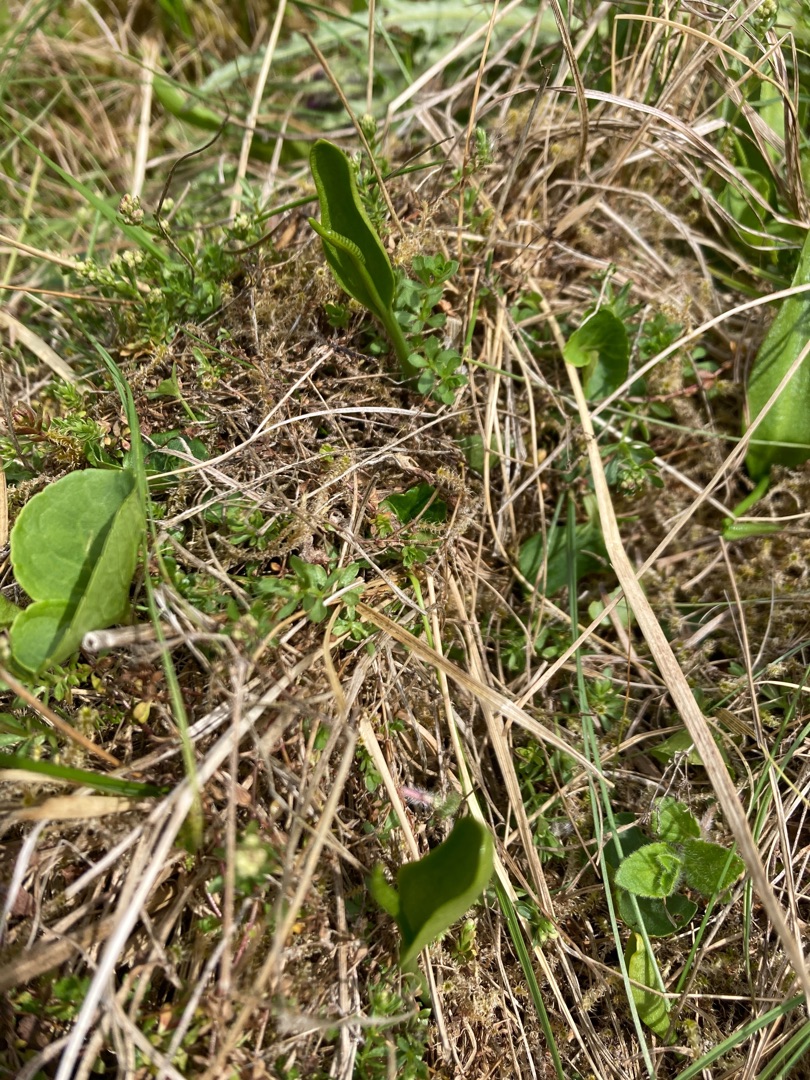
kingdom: Plantae
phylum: Tracheophyta
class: Polypodiopsida
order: Ophioglossales
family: Ophioglossaceae
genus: Ophioglossum
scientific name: Ophioglossum vulgatum
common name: Slangetunge
